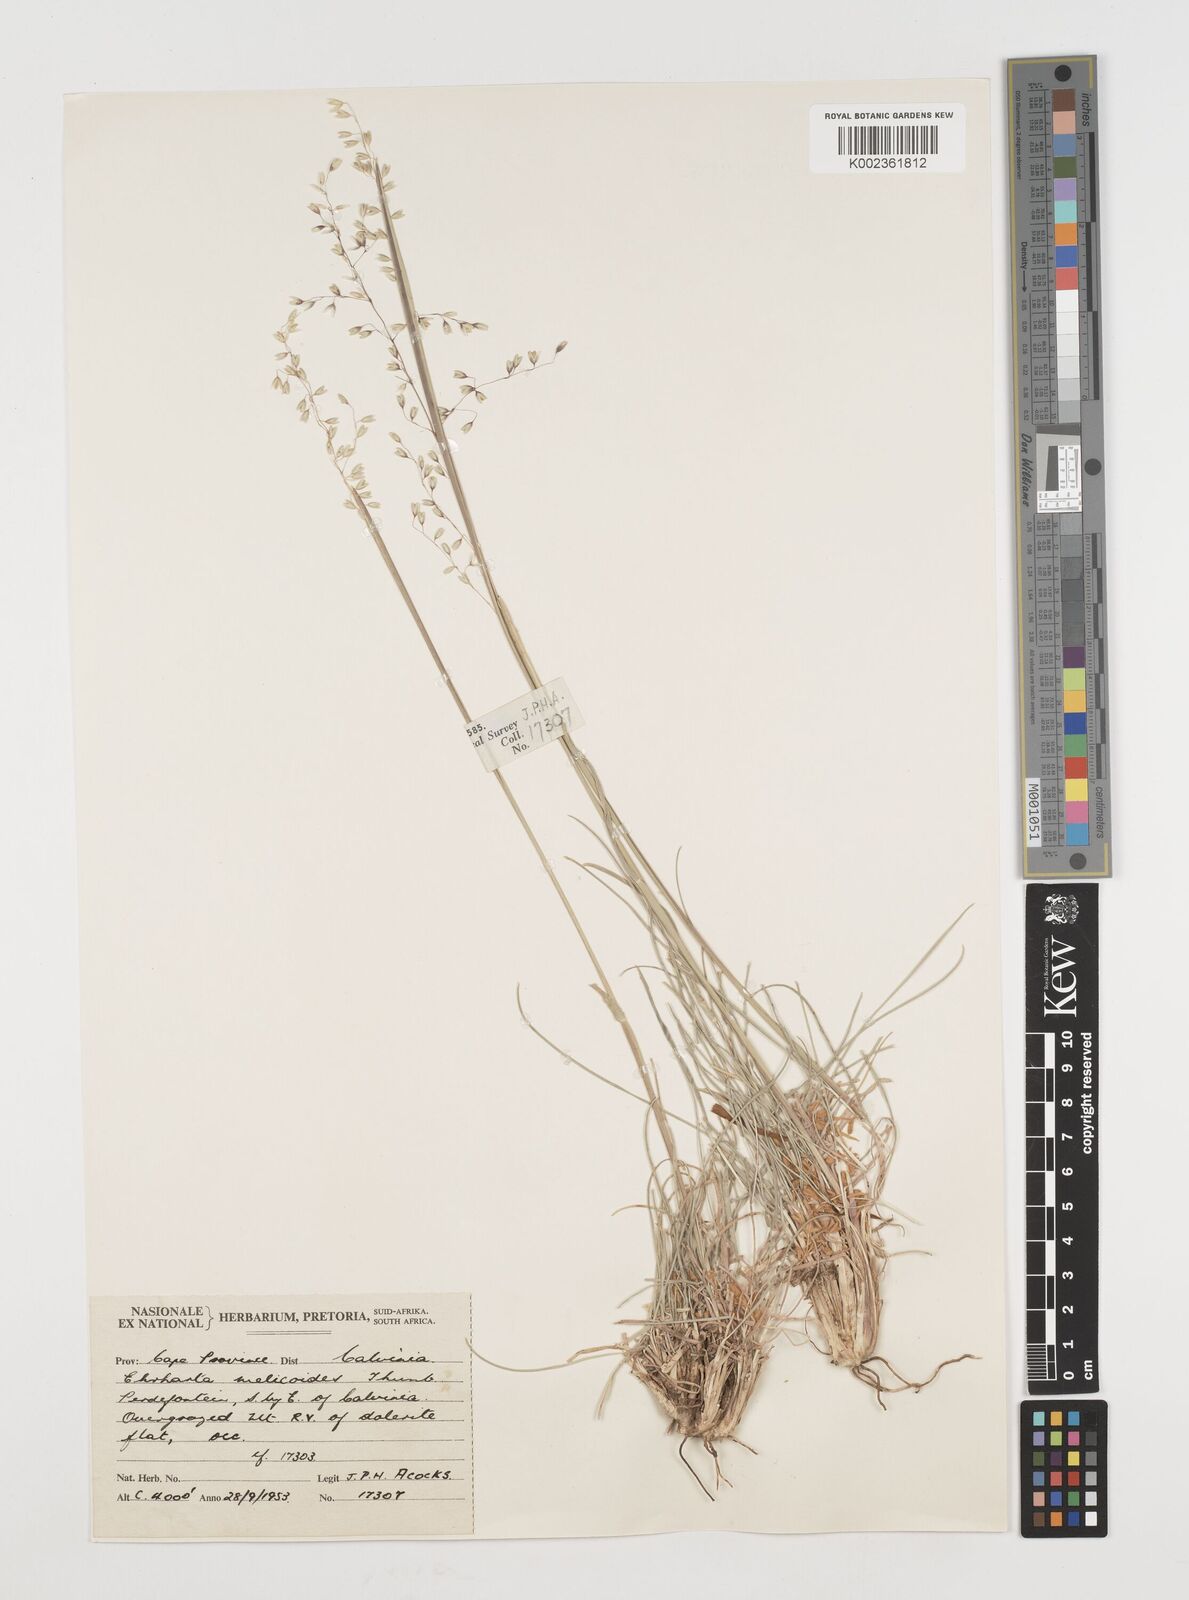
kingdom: Plantae
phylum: Tracheophyta
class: Liliopsida
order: Poales
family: Poaceae
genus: Ehrharta
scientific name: Ehrharta melicoides
